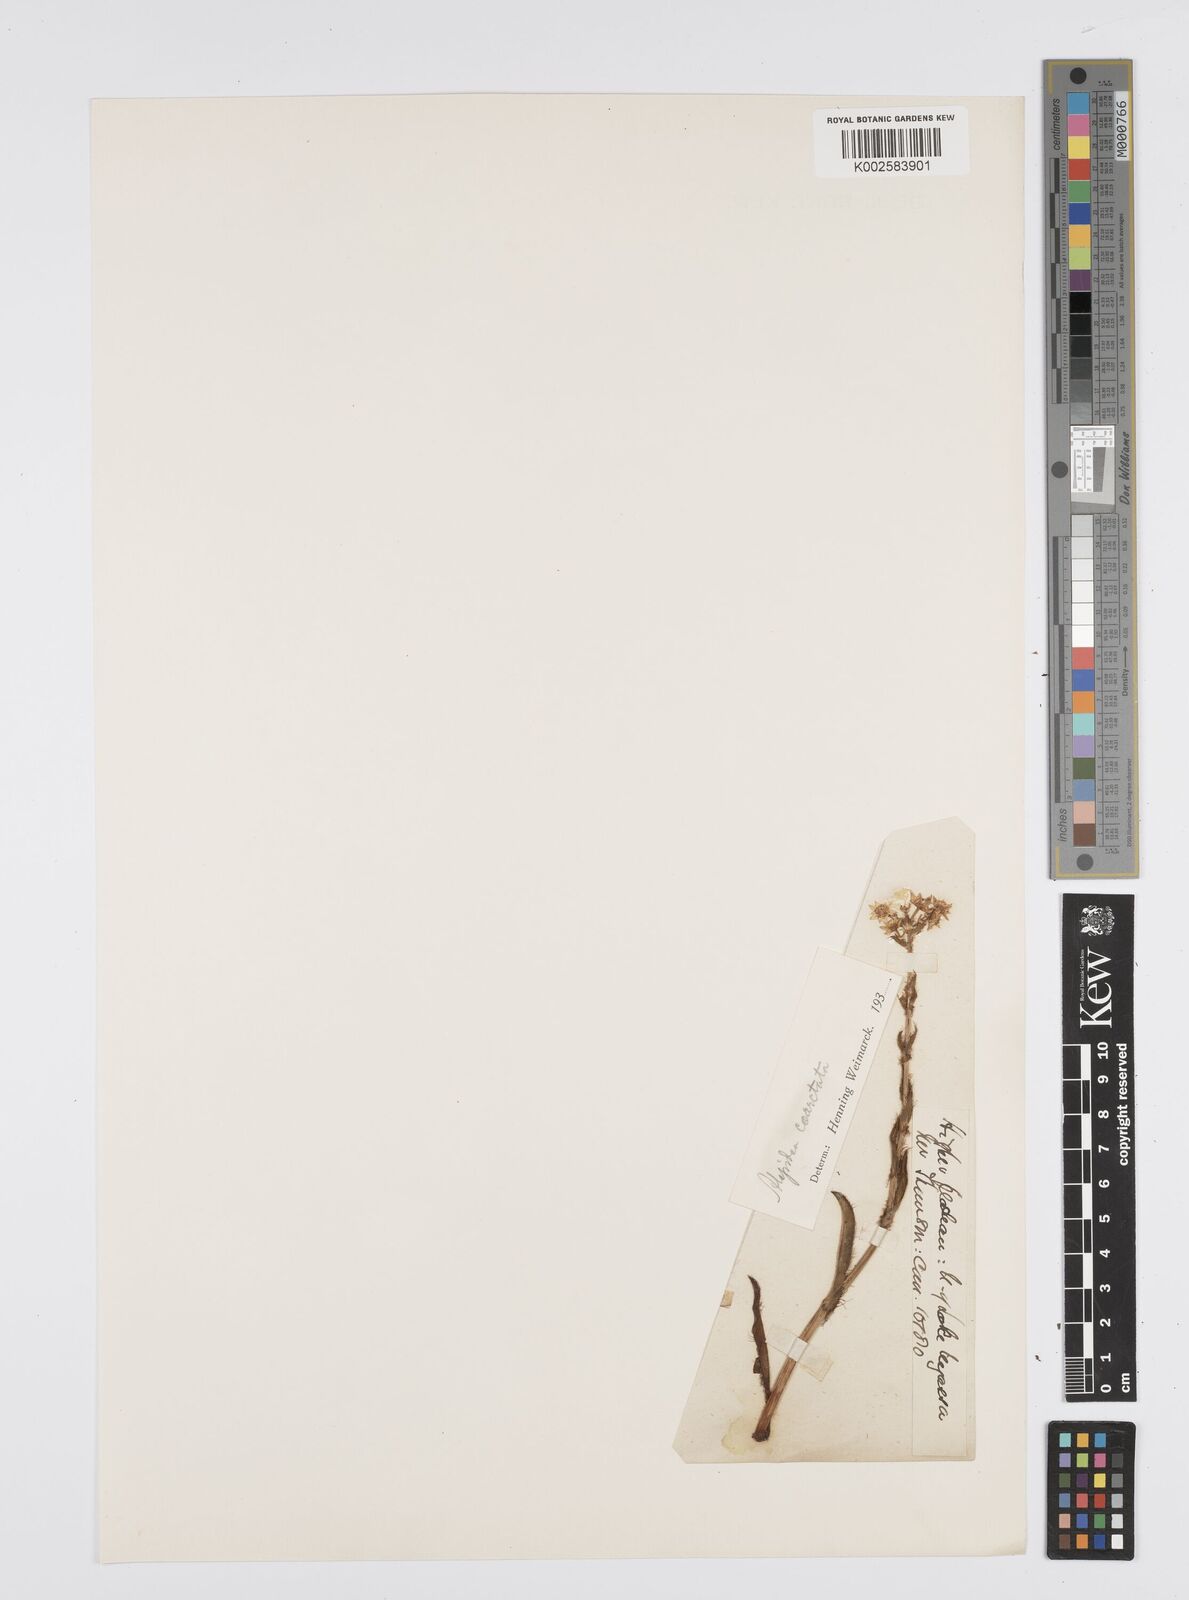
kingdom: Plantae
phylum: Tracheophyta
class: Magnoliopsida
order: Apiales
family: Apiaceae
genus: Alepidea
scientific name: Alepidea
